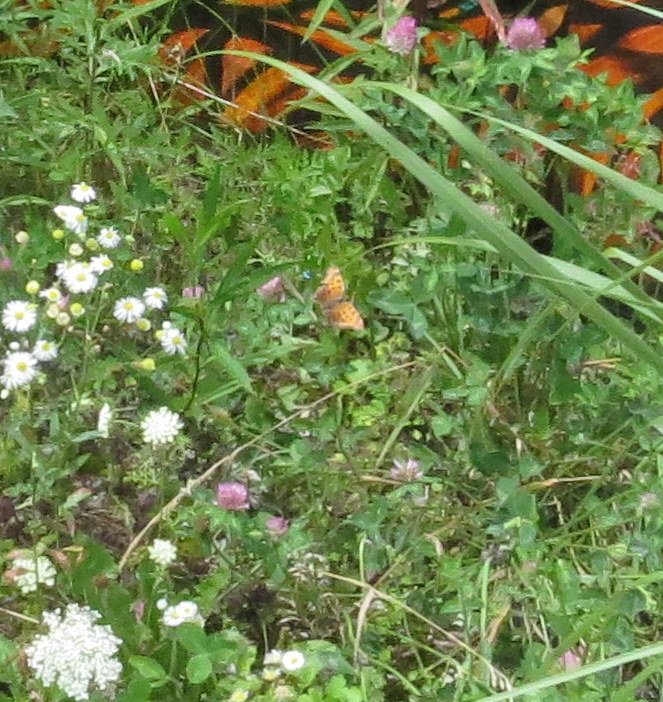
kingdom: Animalia
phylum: Arthropoda
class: Insecta
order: Lepidoptera
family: Nymphalidae
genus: Polygonia
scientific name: Polygonia
